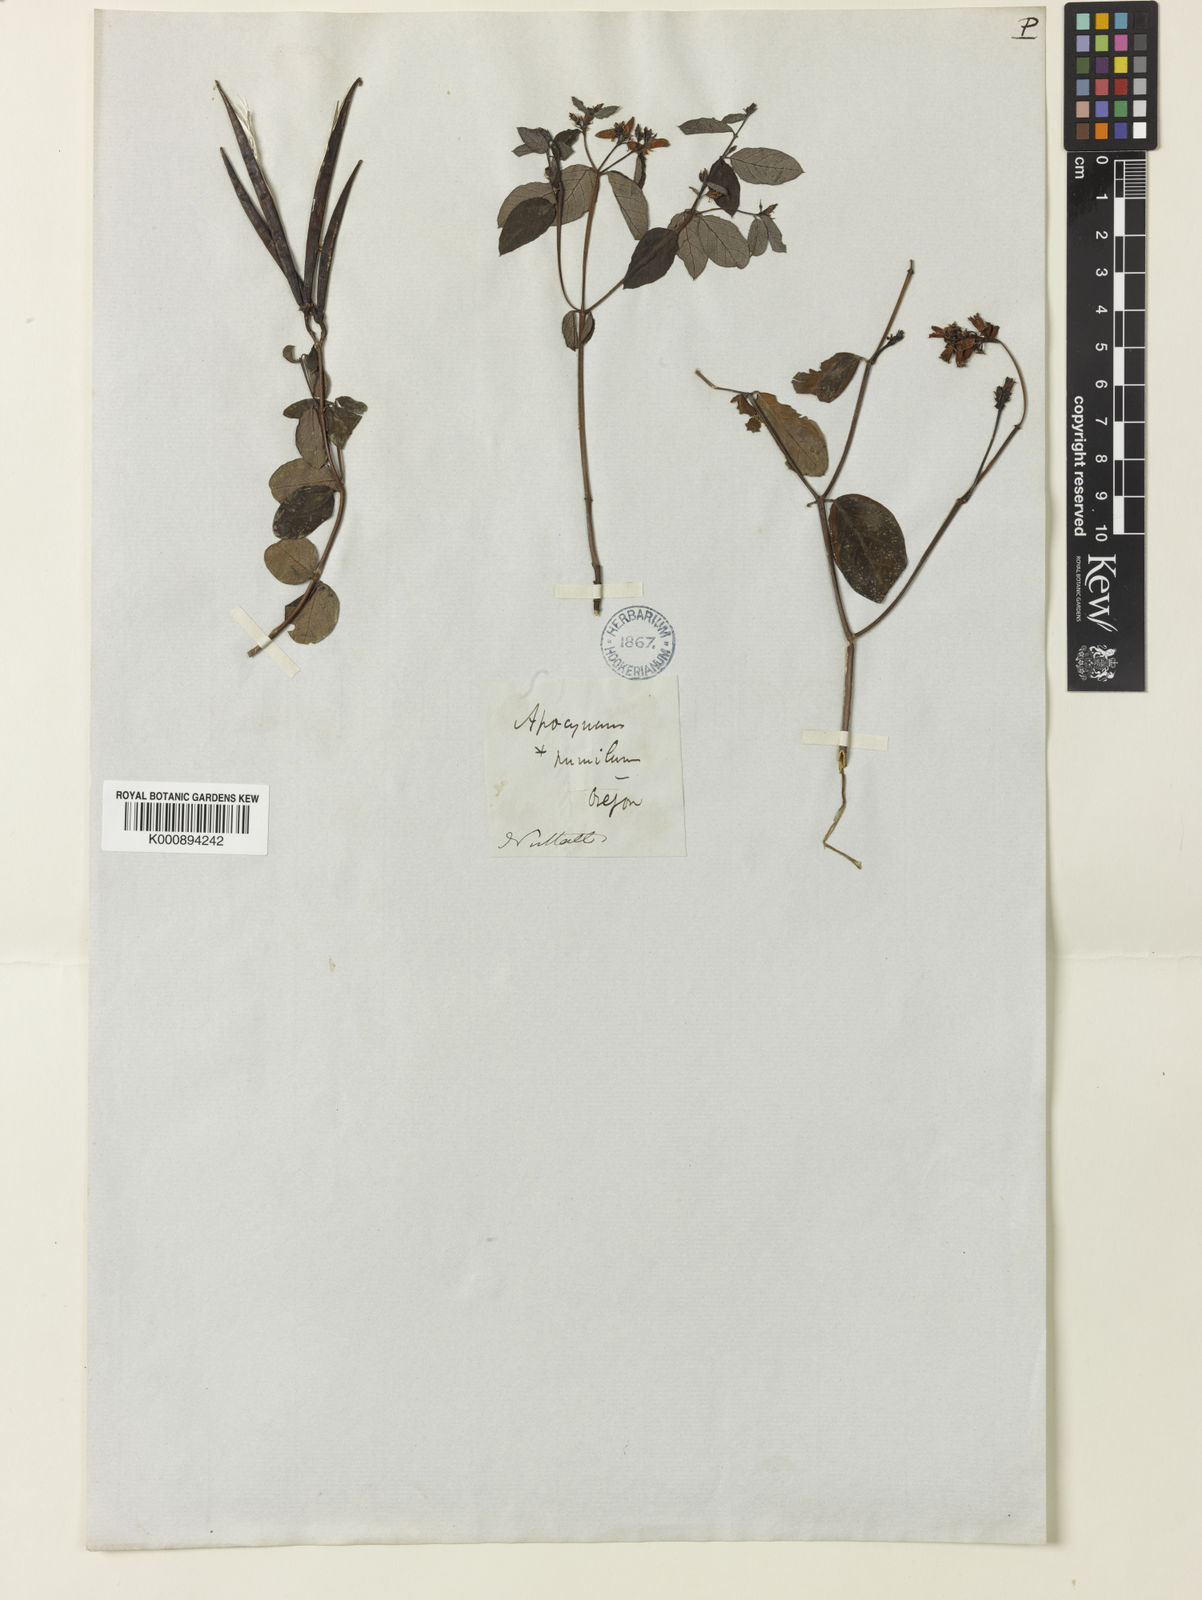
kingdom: Plantae
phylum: Tracheophyta
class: Magnoliopsida
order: Gentianales
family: Apocynaceae
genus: Apocynum
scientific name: Apocynum androsaemifolium
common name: Spreading dogbane
